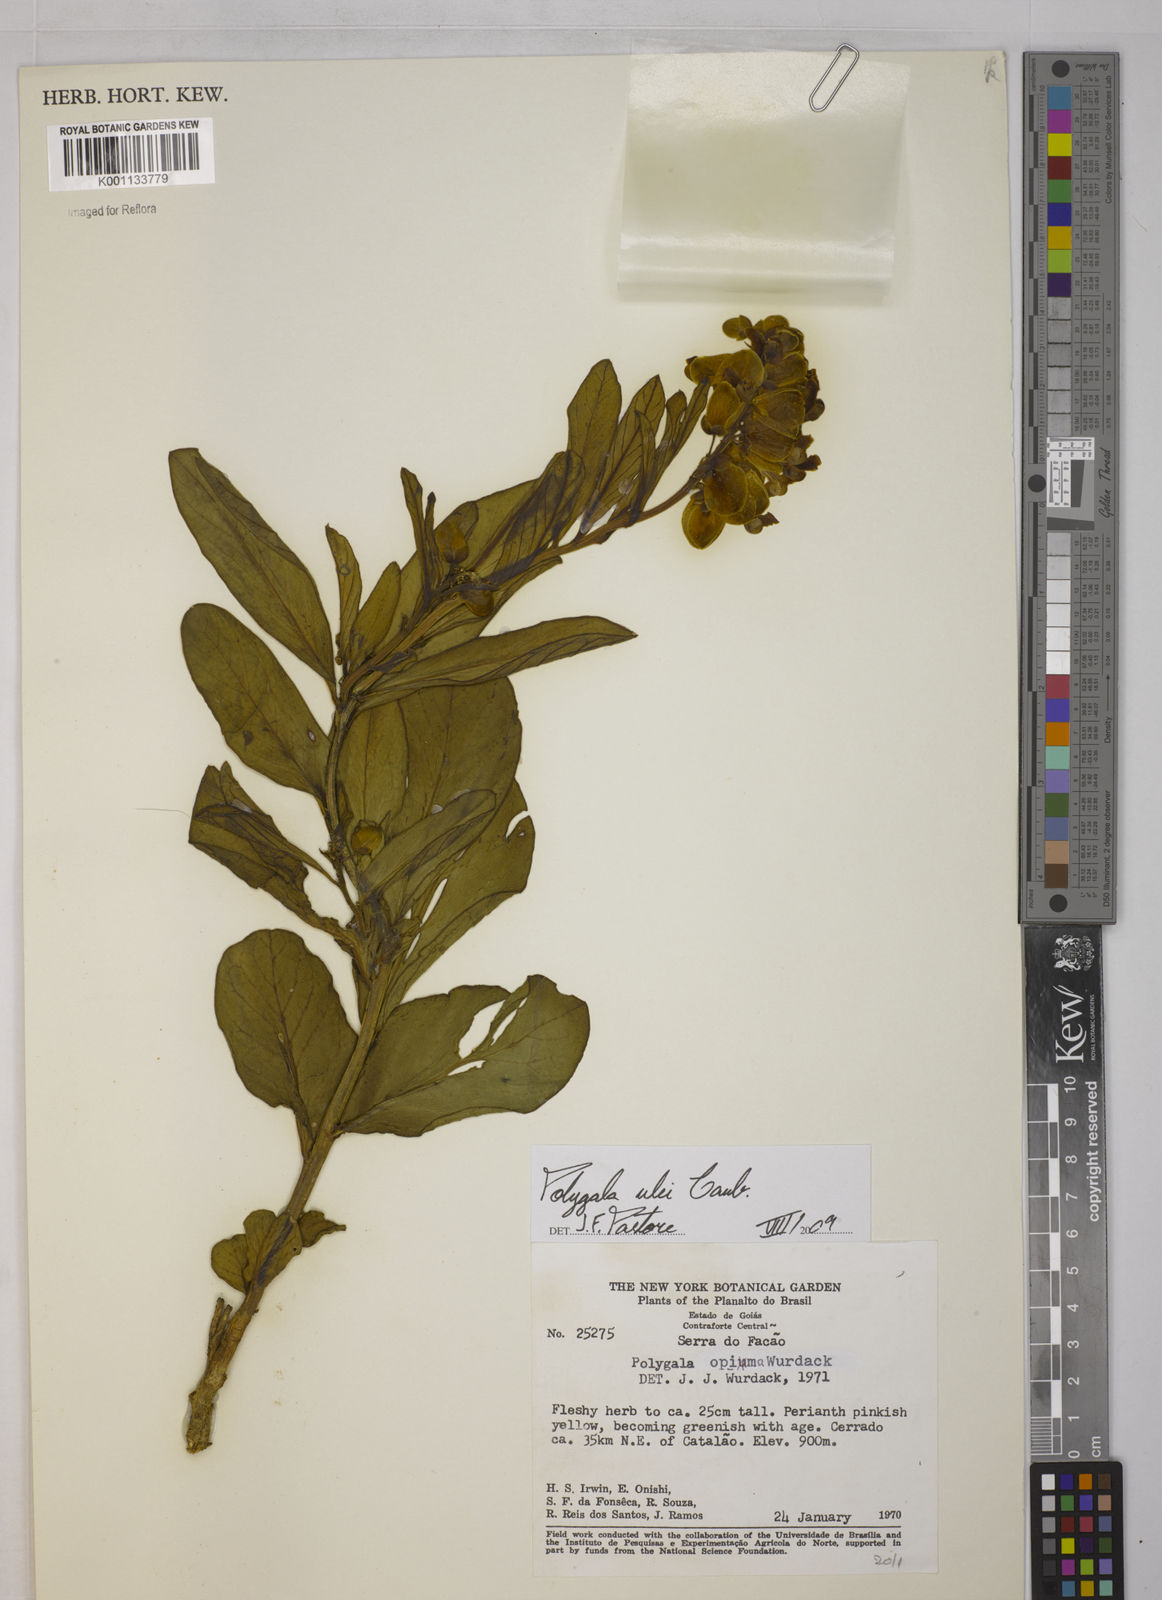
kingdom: Plantae
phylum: Tracheophyta
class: Magnoliopsida
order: Fabales
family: Polygalaceae
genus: Caamembeca
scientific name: Caamembeca ulei
